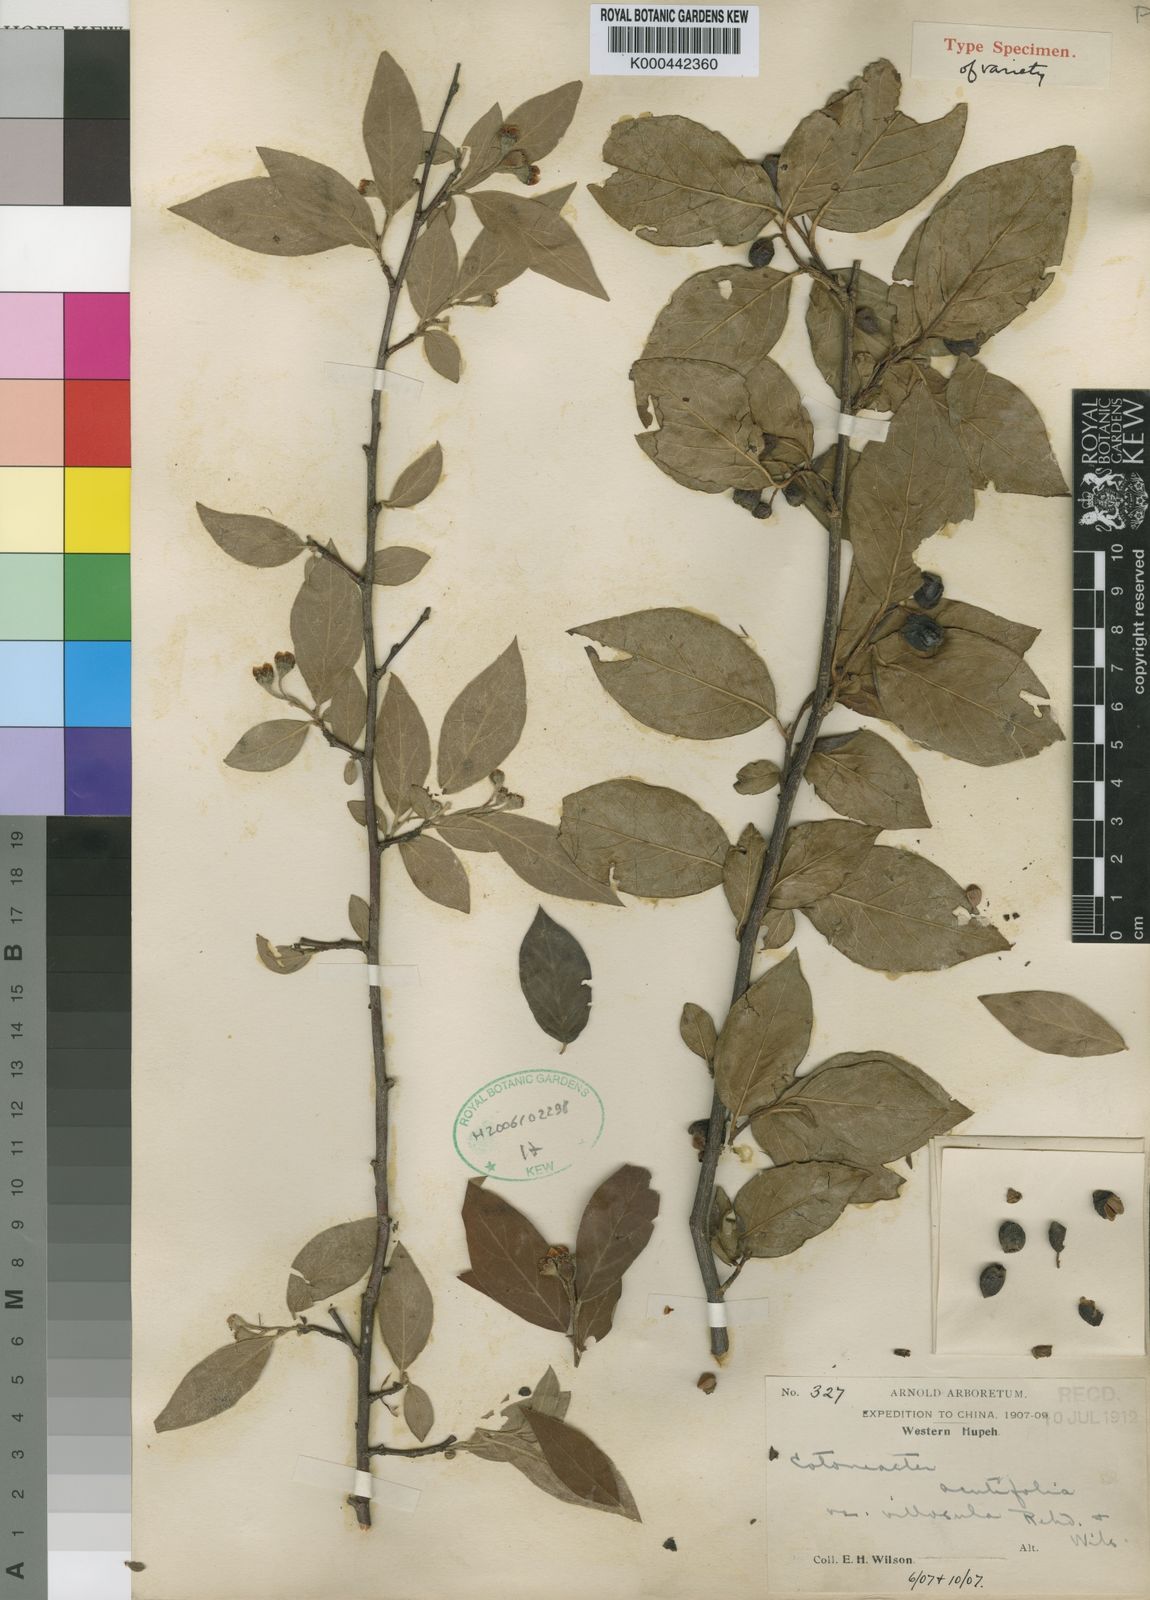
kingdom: Plantae
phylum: Tracheophyta
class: Magnoliopsida
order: Rosales
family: Rosaceae
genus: Cotoneaster
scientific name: Cotoneaster
